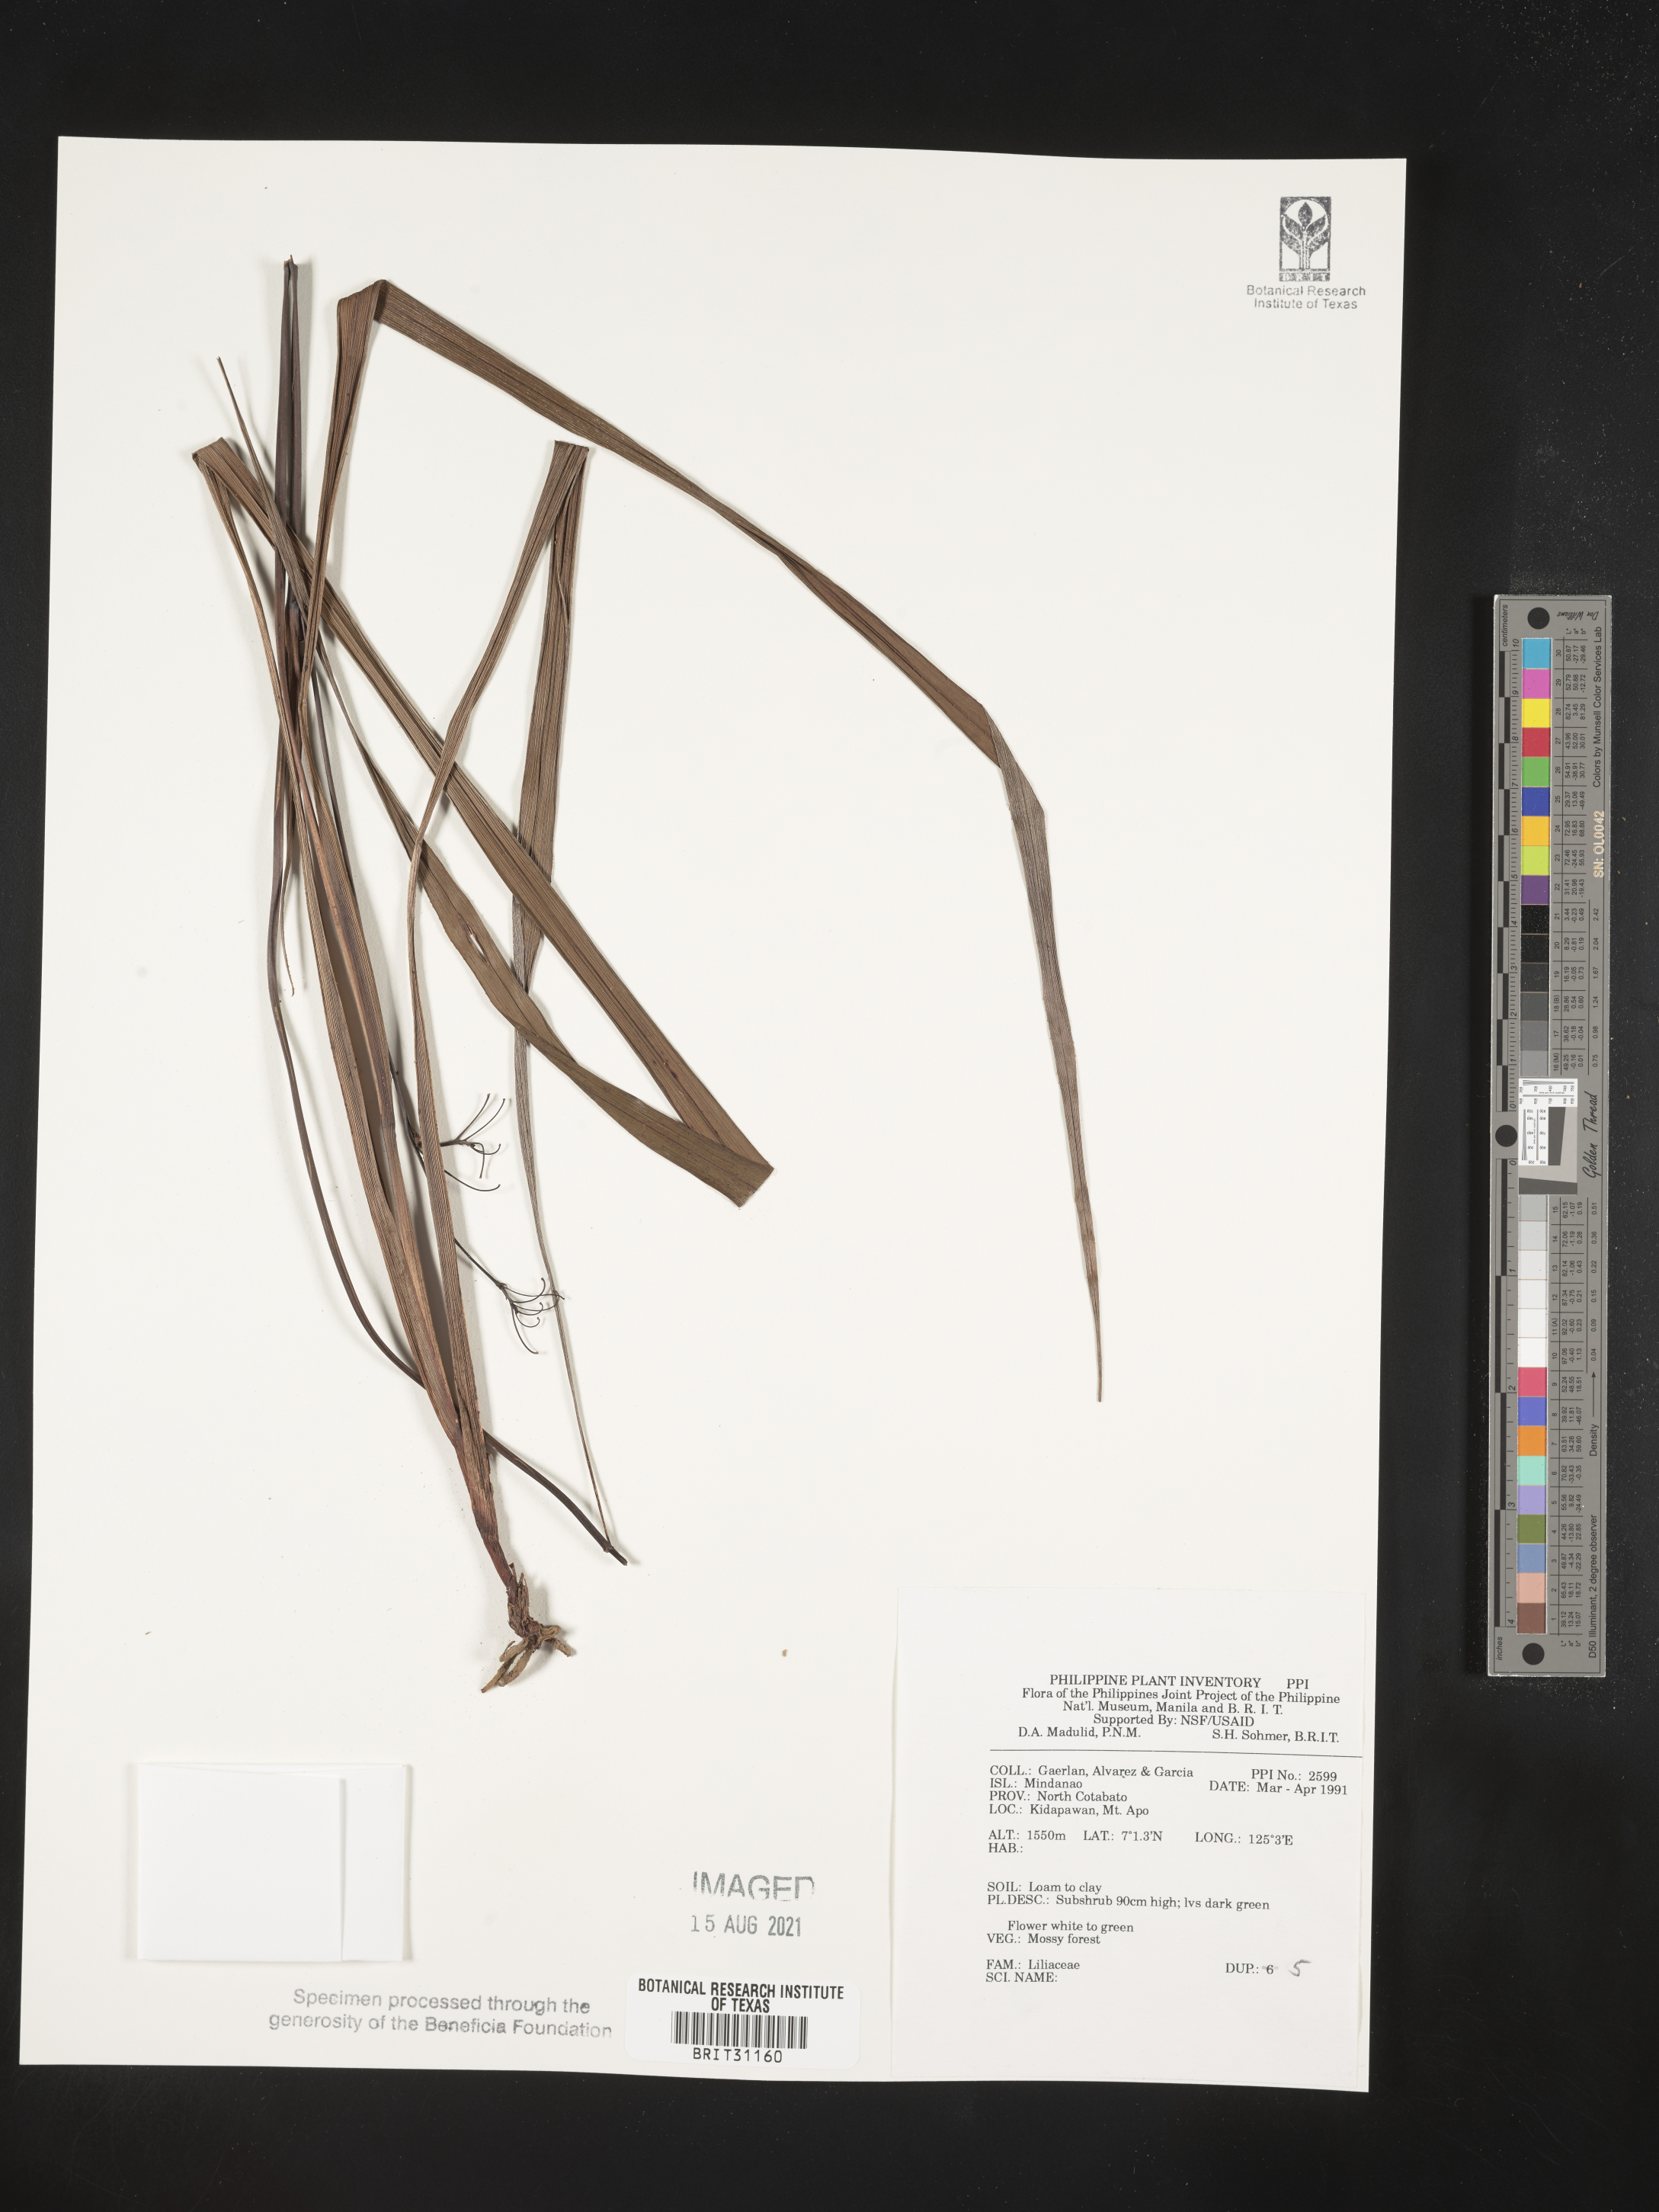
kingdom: Plantae
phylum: Tracheophyta
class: Liliopsida
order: Liliales
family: Liliaceae
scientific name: Liliaceae
